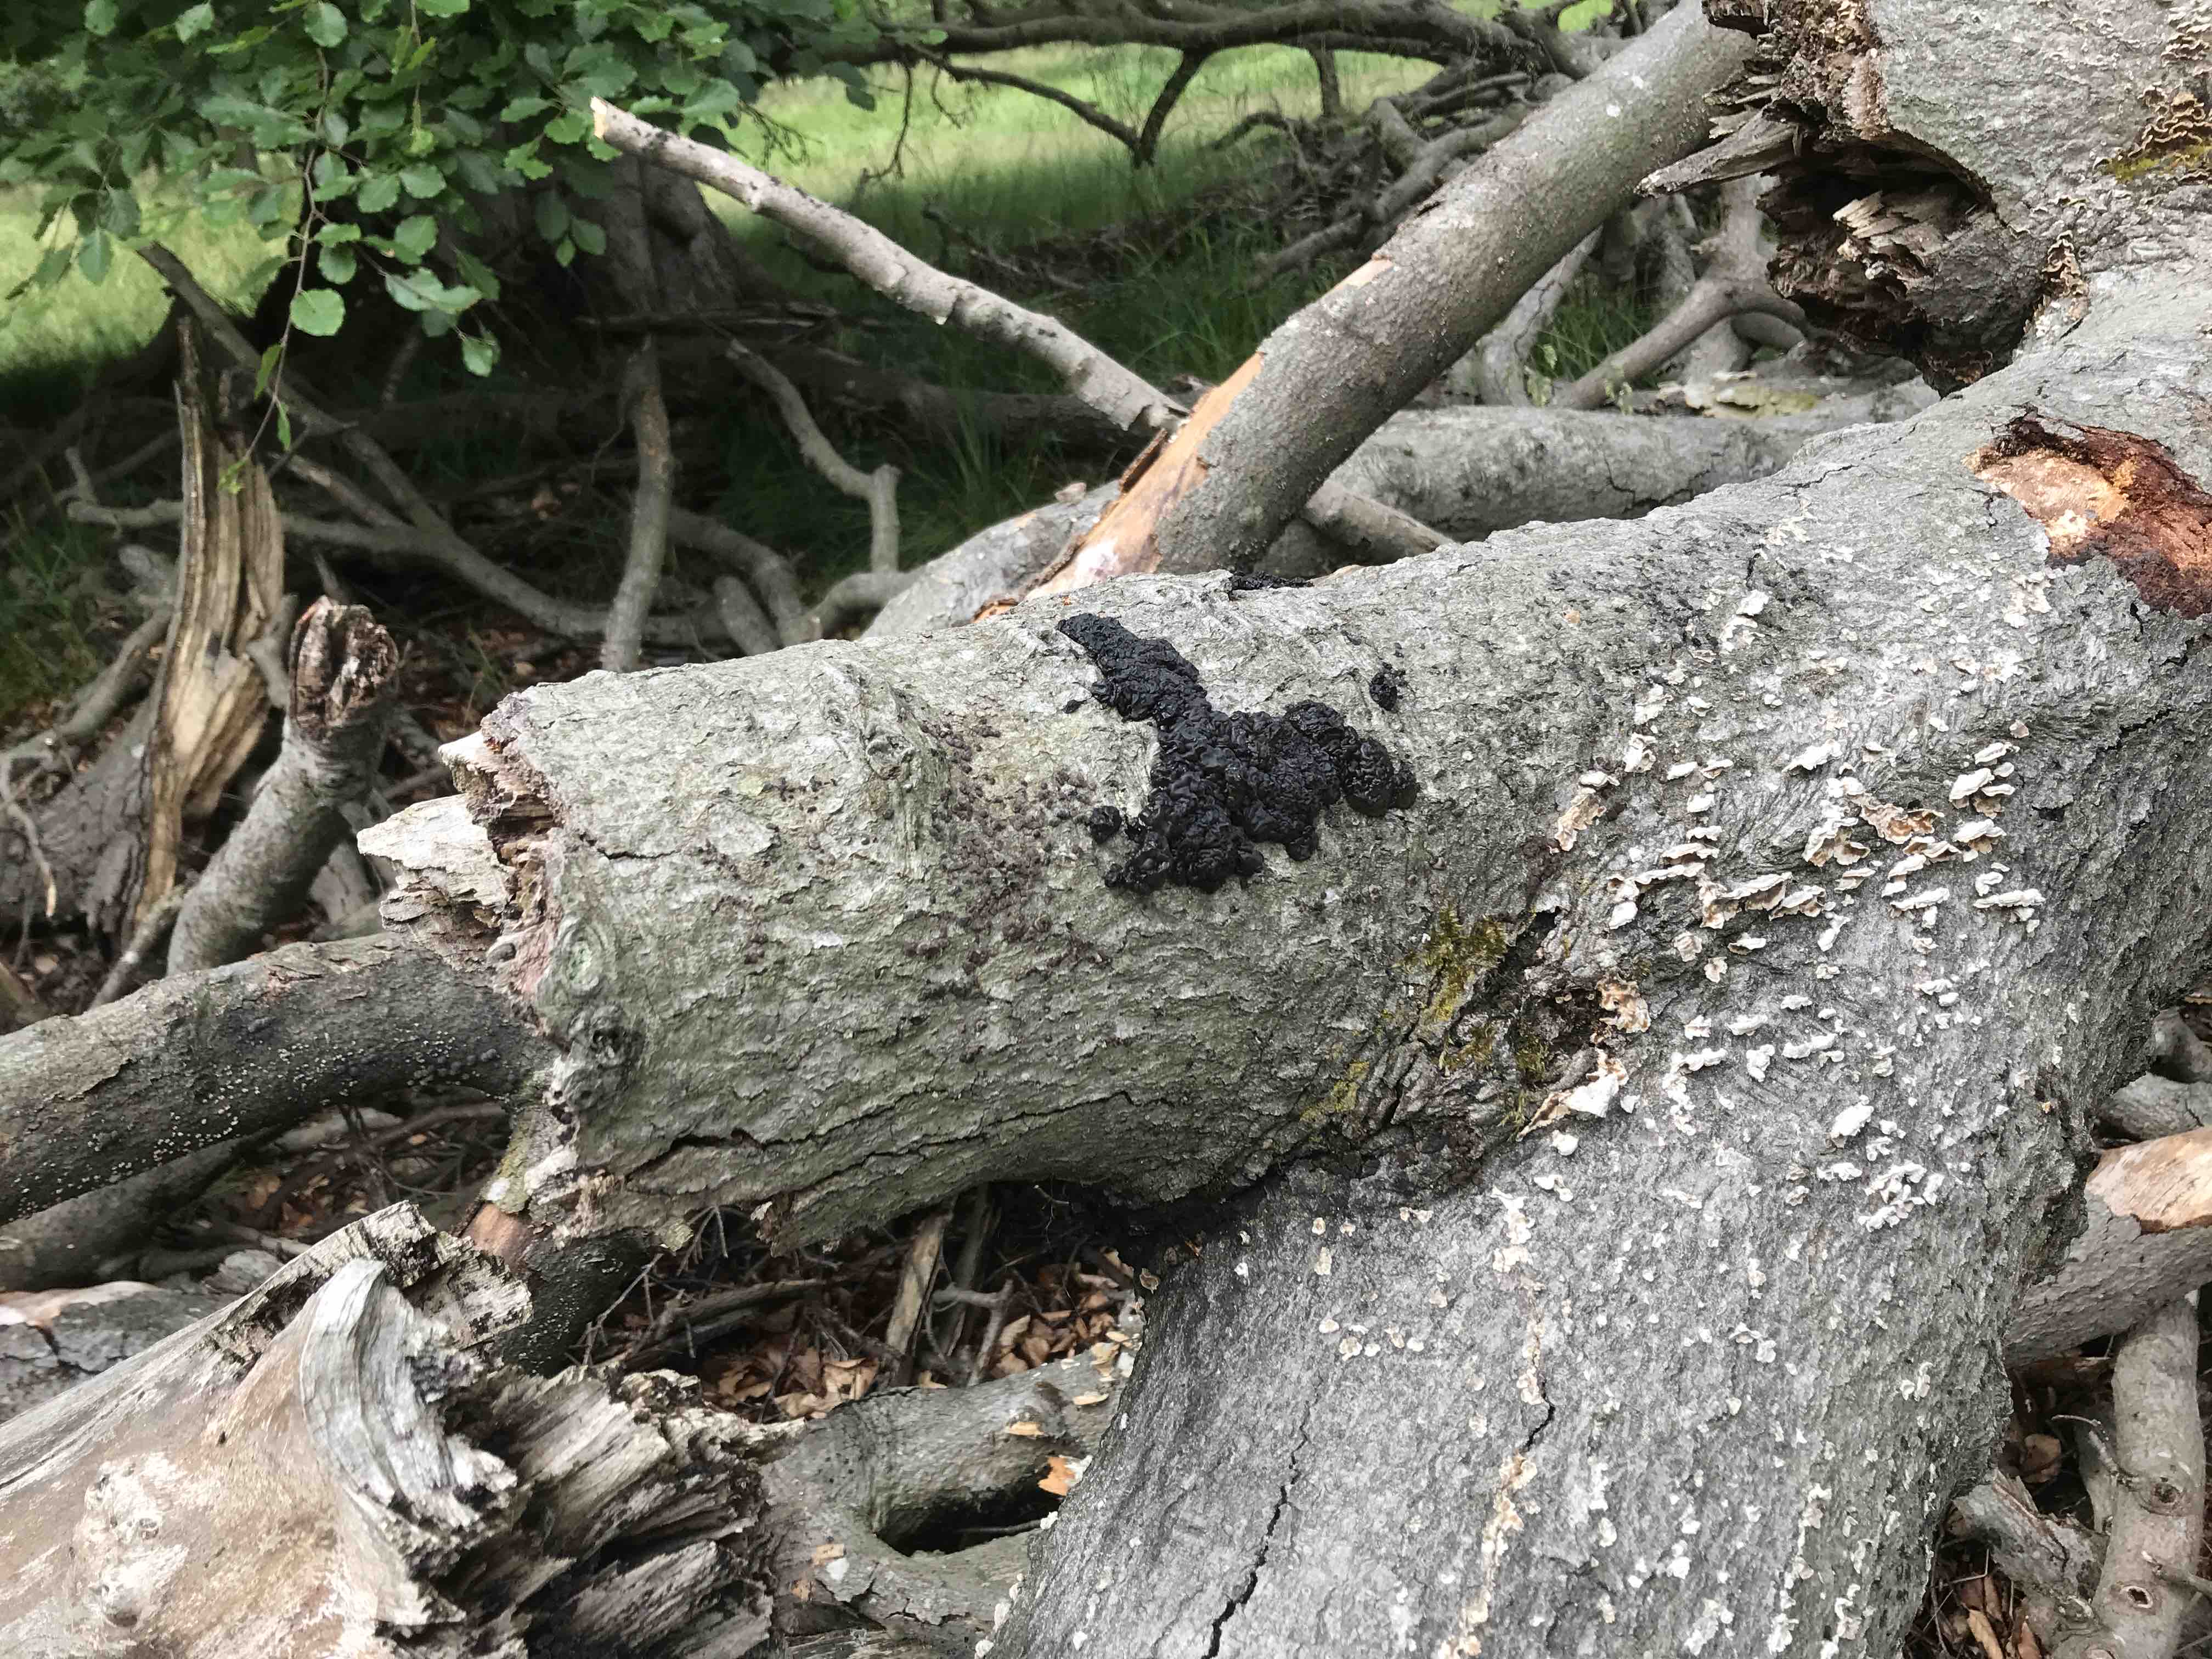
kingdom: Fungi
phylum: Basidiomycota
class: Agaricomycetes
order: Auriculariales
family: Auriculariaceae
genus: Exidia
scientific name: Exidia nigricans
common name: almindelig bævretop
